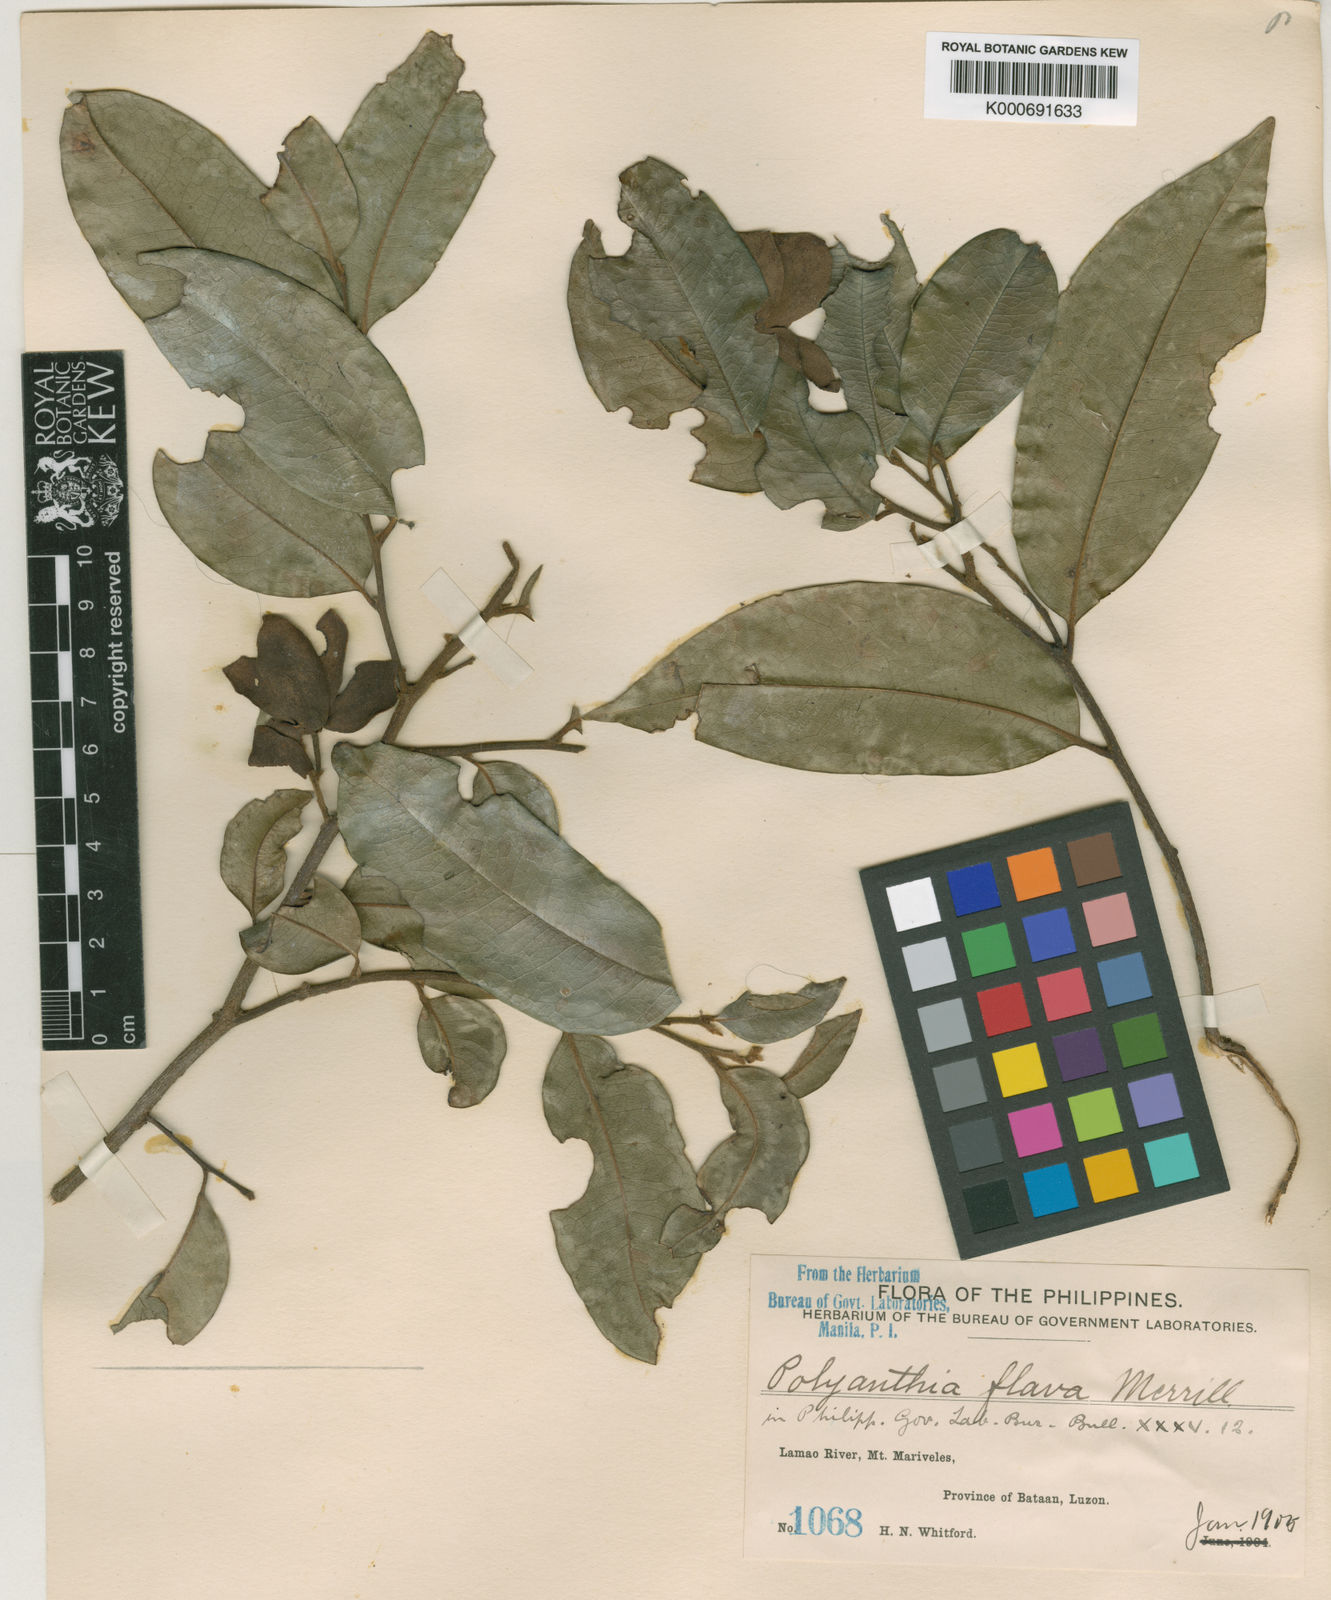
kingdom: Plantae
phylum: Tracheophyta
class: Magnoliopsida
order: Magnoliales
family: Annonaceae
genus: Polyalthia
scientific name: Polyalthia flava
